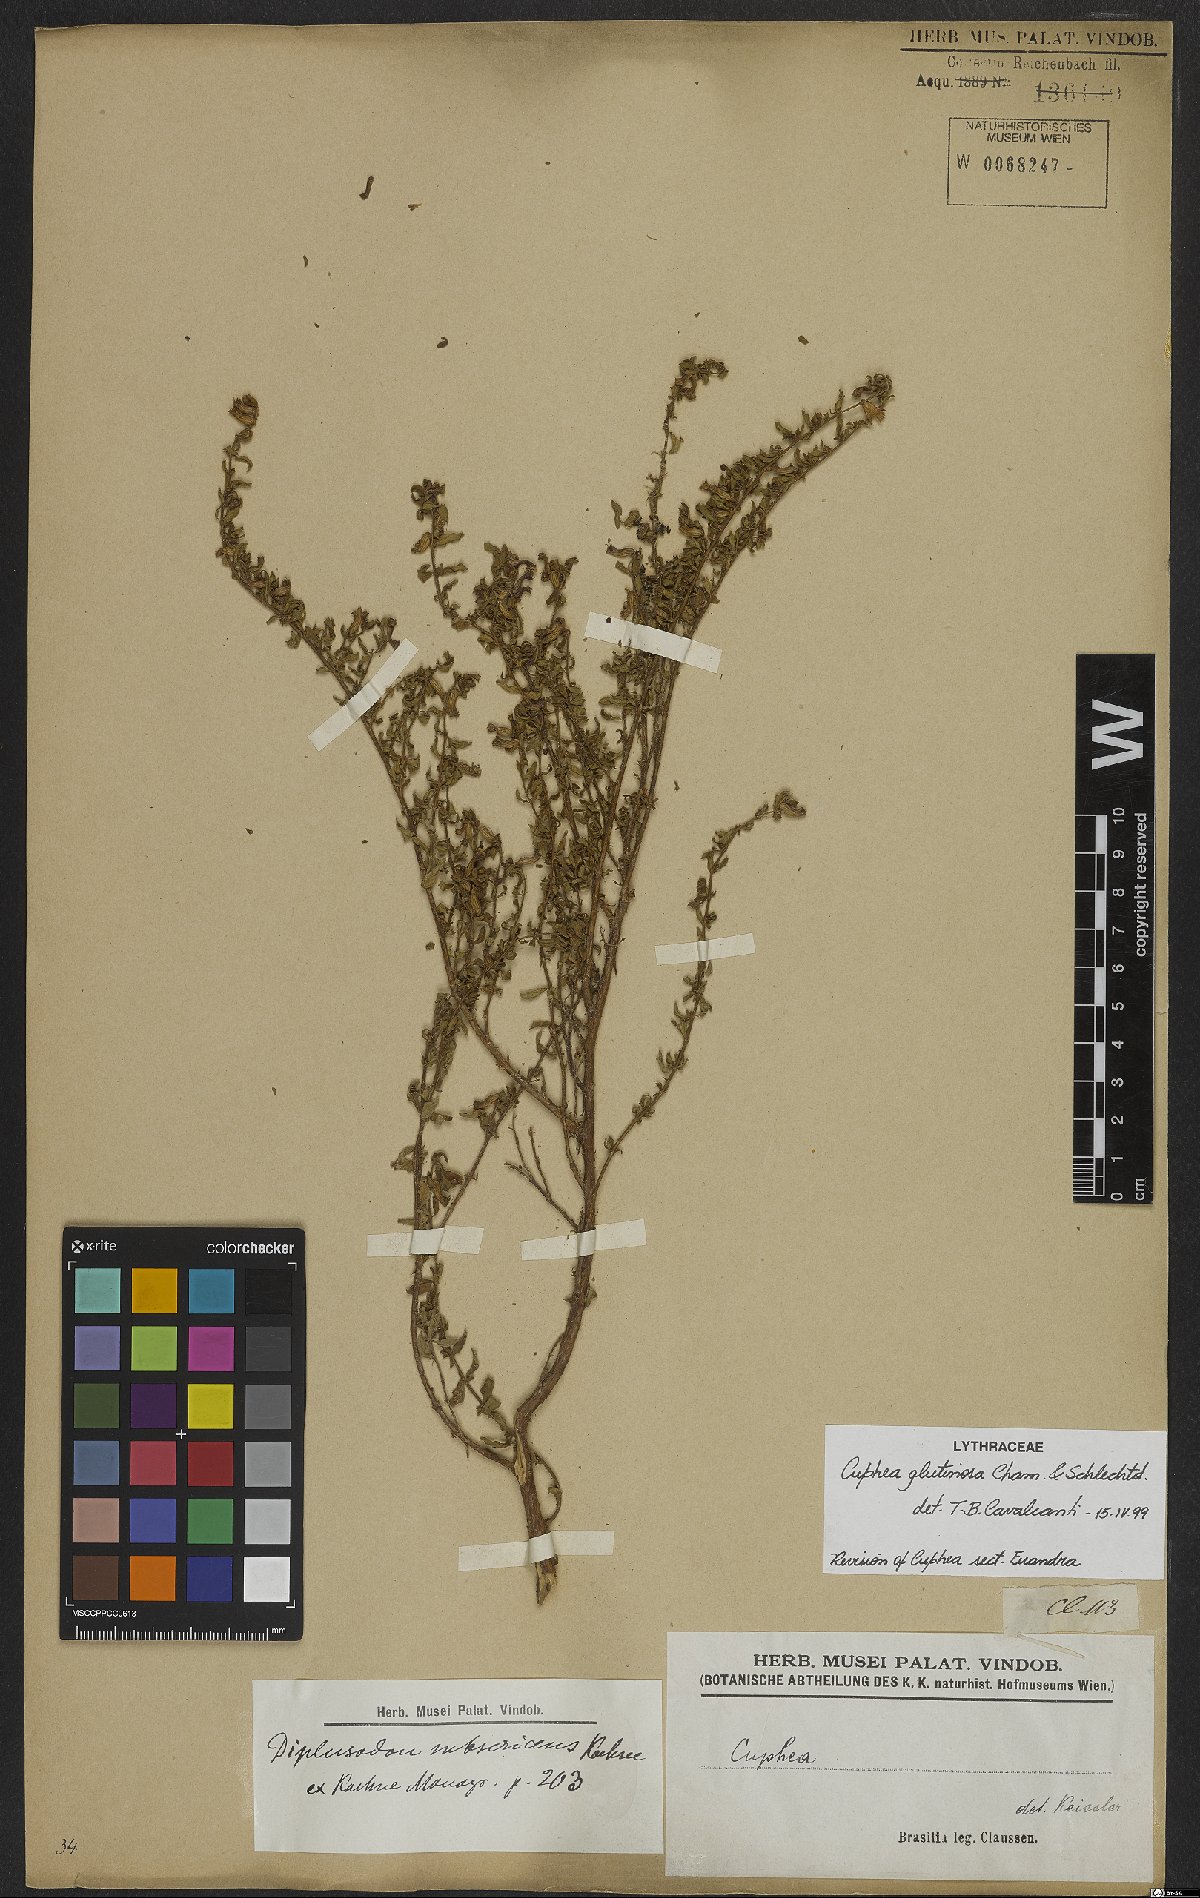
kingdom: Plantae
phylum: Tracheophyta
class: Magnoliopsida
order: Myrtales
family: Lythraceae
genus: Cuphea
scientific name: Cuphea glutinosa
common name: Sticky waxweed
